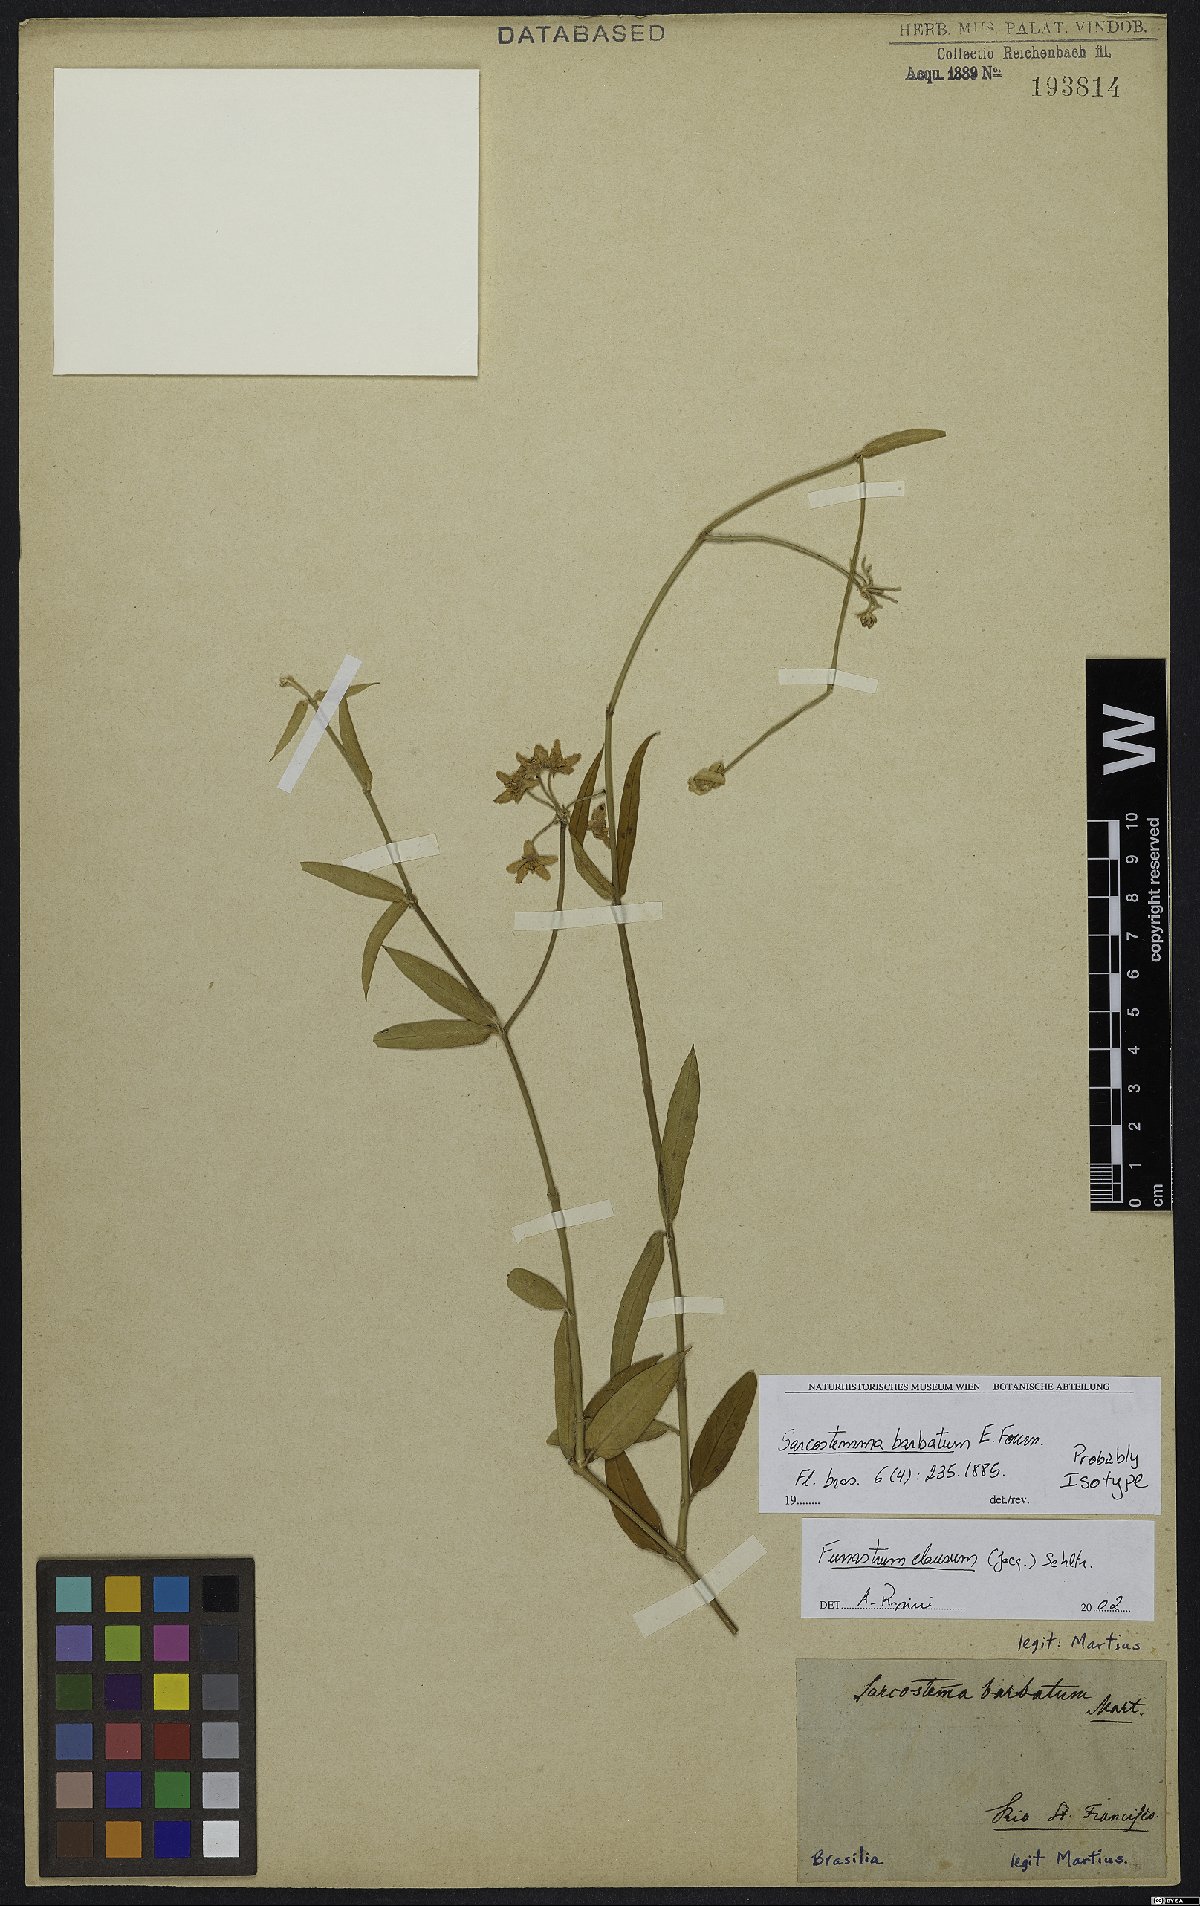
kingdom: Plantae
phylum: Tracheophyta
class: Magnoliopsida
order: Gentianales
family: Apocynaceae
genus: Funastrum
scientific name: Funastrum clausum
